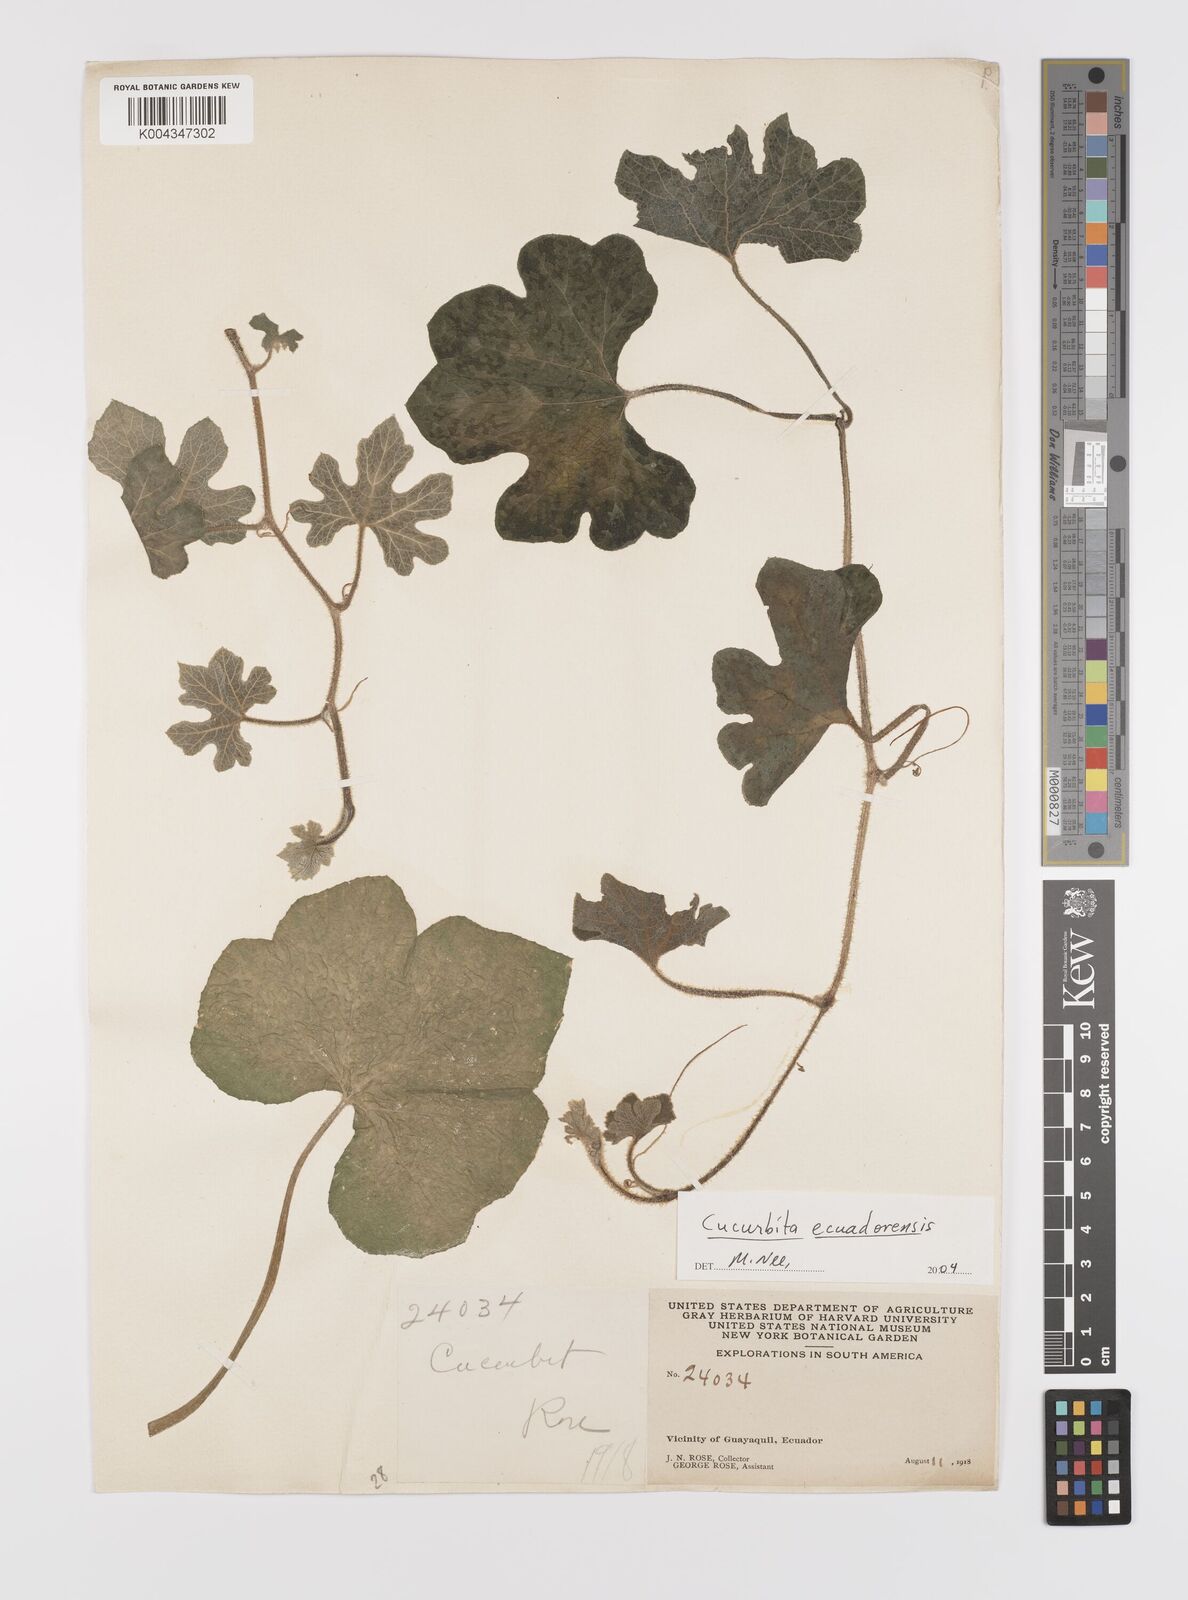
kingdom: Plantae
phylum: Tracheophyta
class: Magnoliopsida
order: Cucurbitales
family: Cucurbitaceae
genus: Cucurbita
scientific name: Cucurbita ecuadorensis
